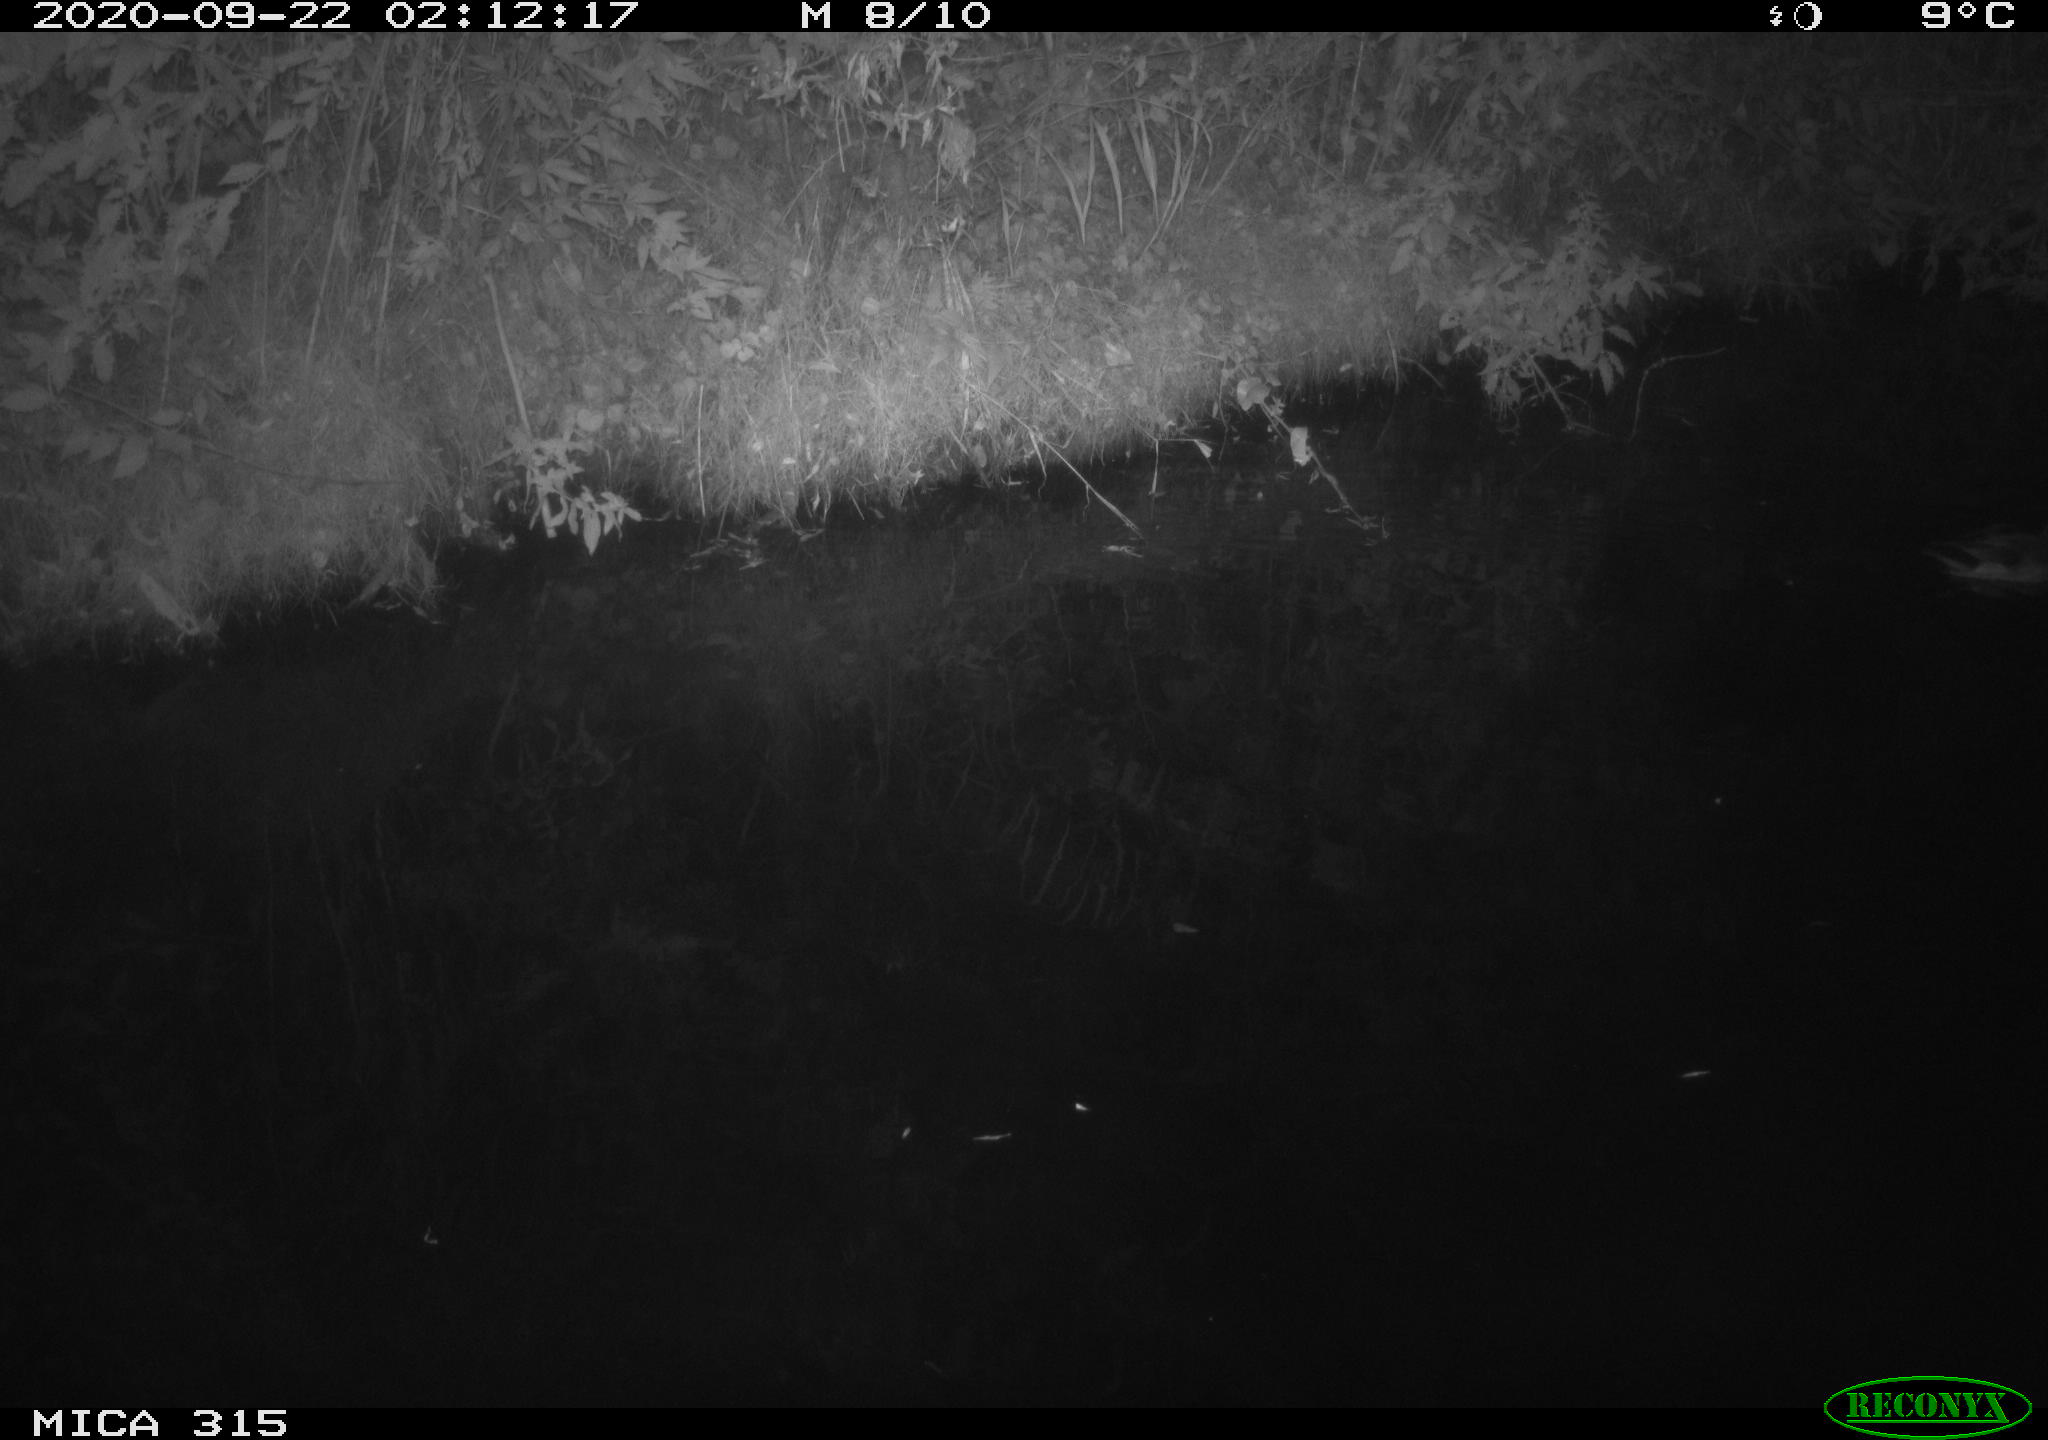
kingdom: Animalia
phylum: Chordata
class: Aves
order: Anseriformes
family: Anatidae
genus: Anas
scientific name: Anas platyrhynchos
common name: Mallard
